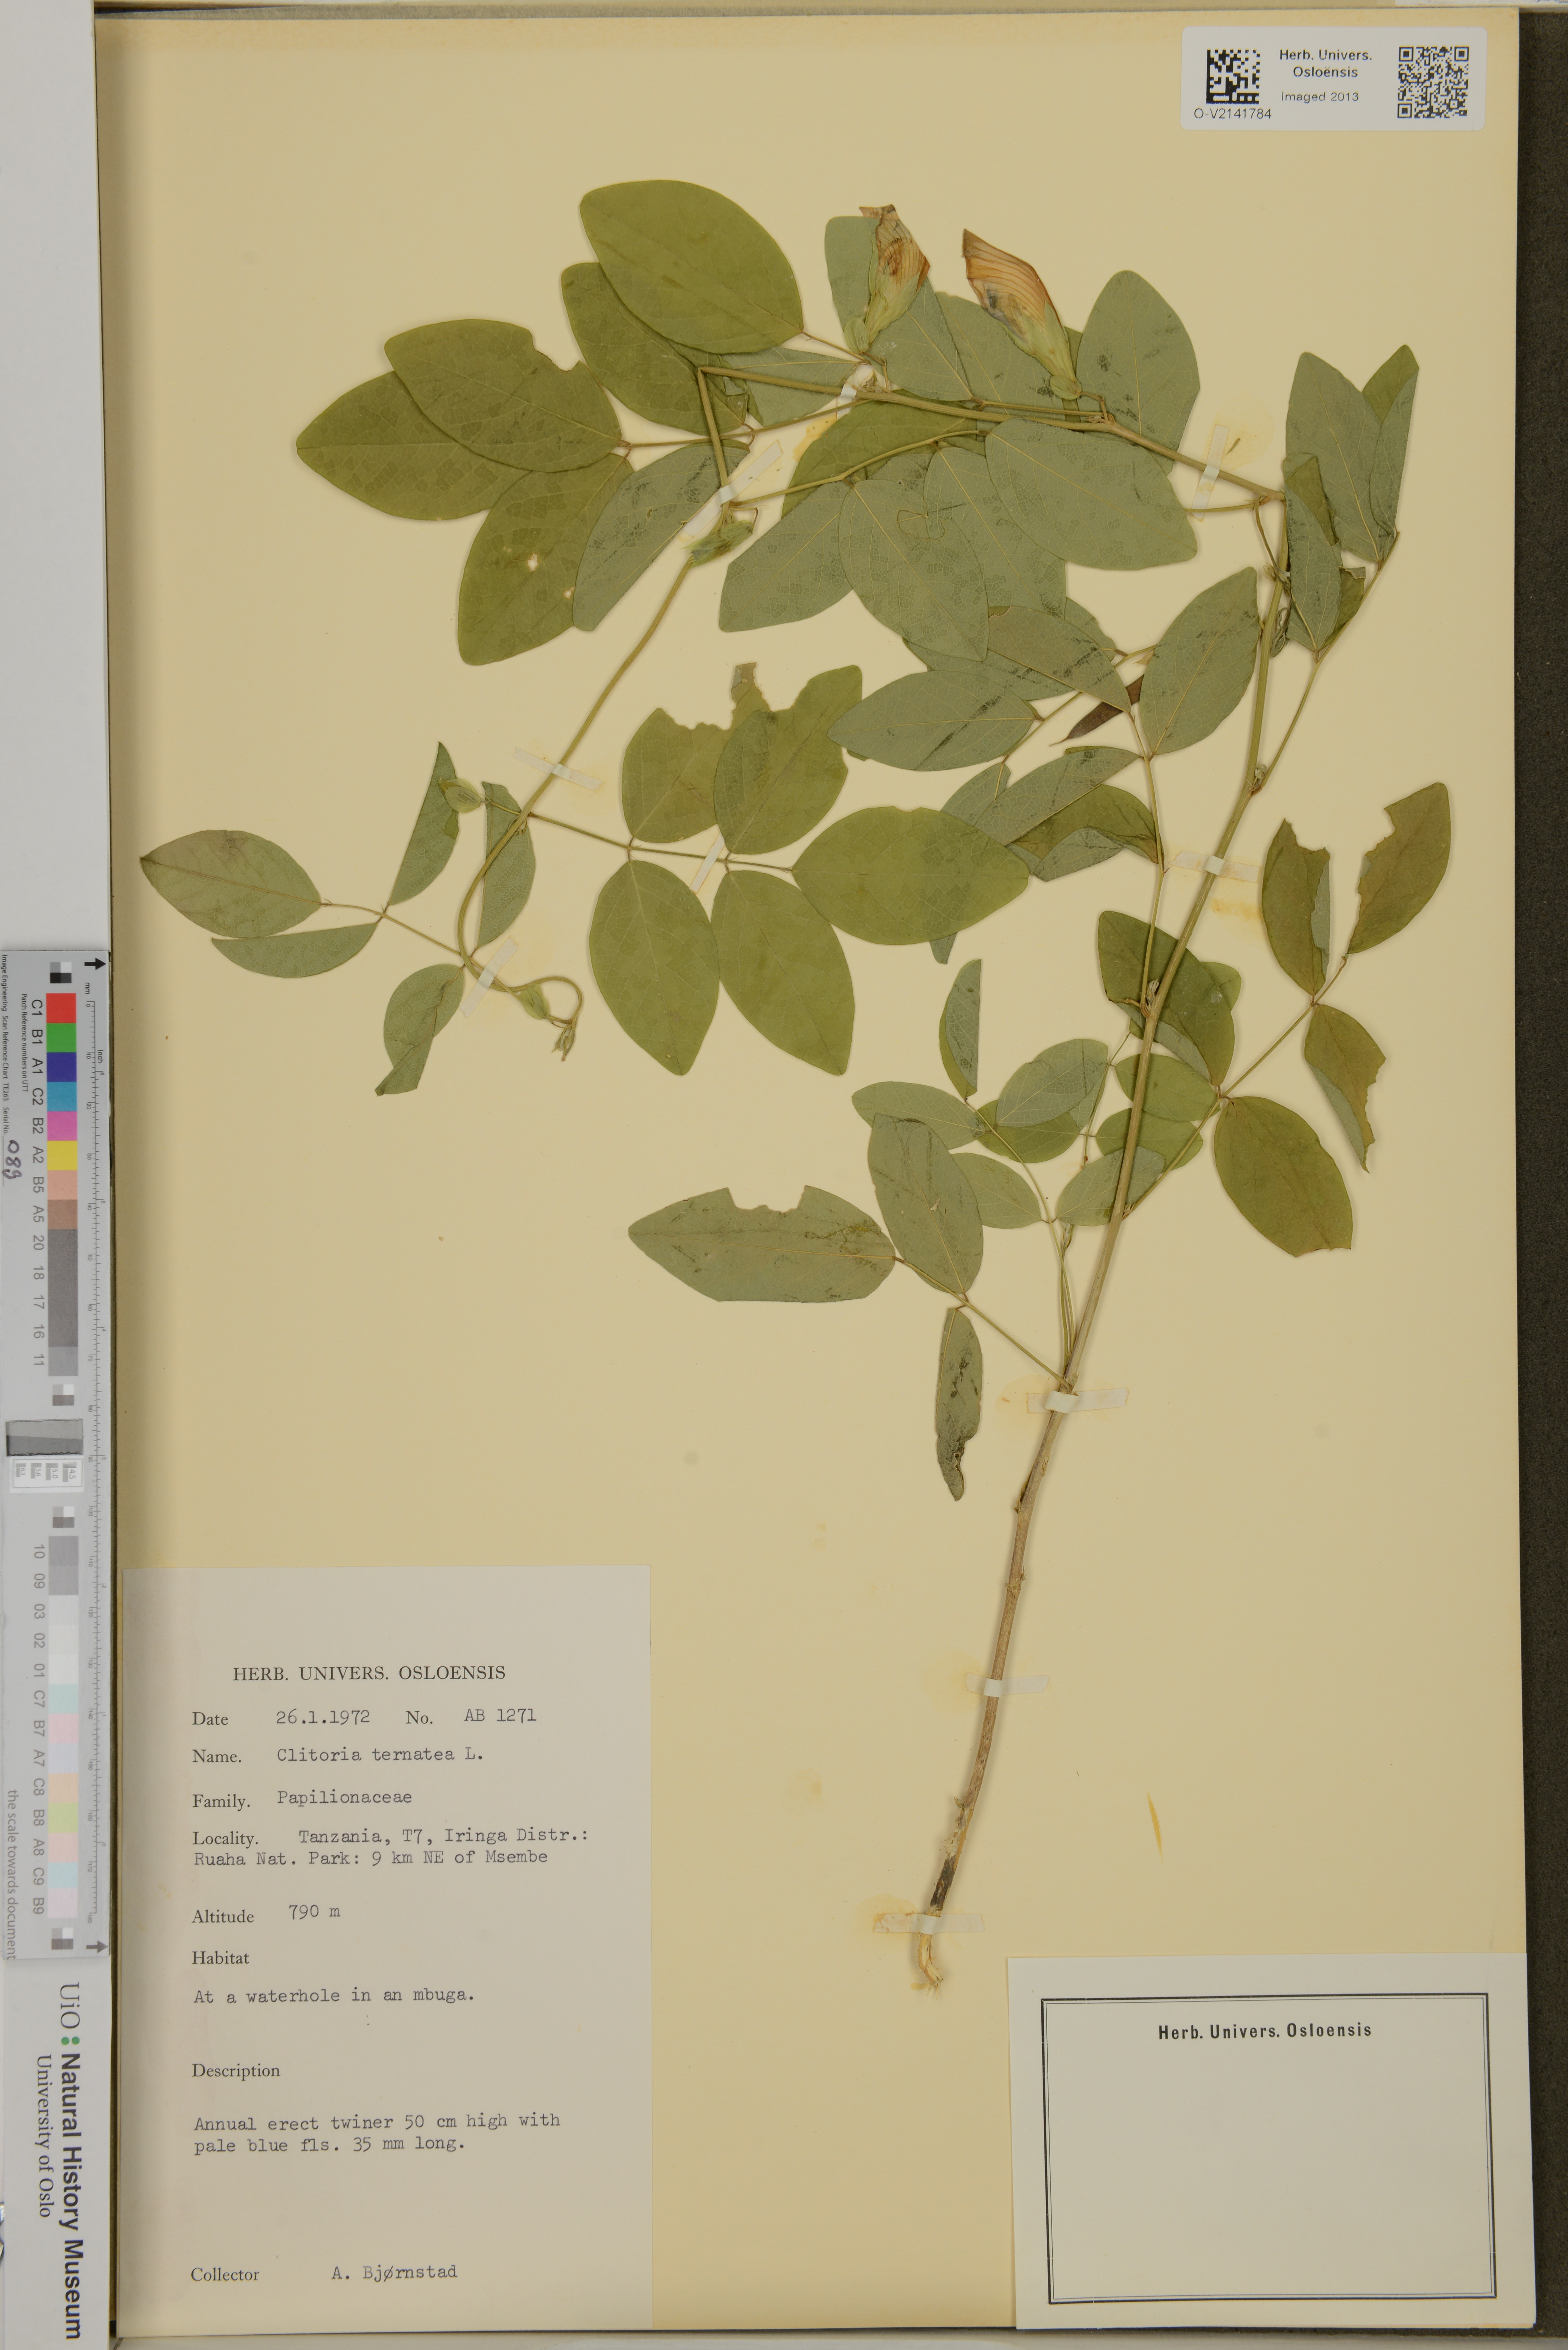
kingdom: Plantae
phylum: Tracheophyta
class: Magnoliopsida
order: Fabales
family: Fabaceae
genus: Clitoria
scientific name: Clitoria ternatea
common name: Asian pigeonwings
